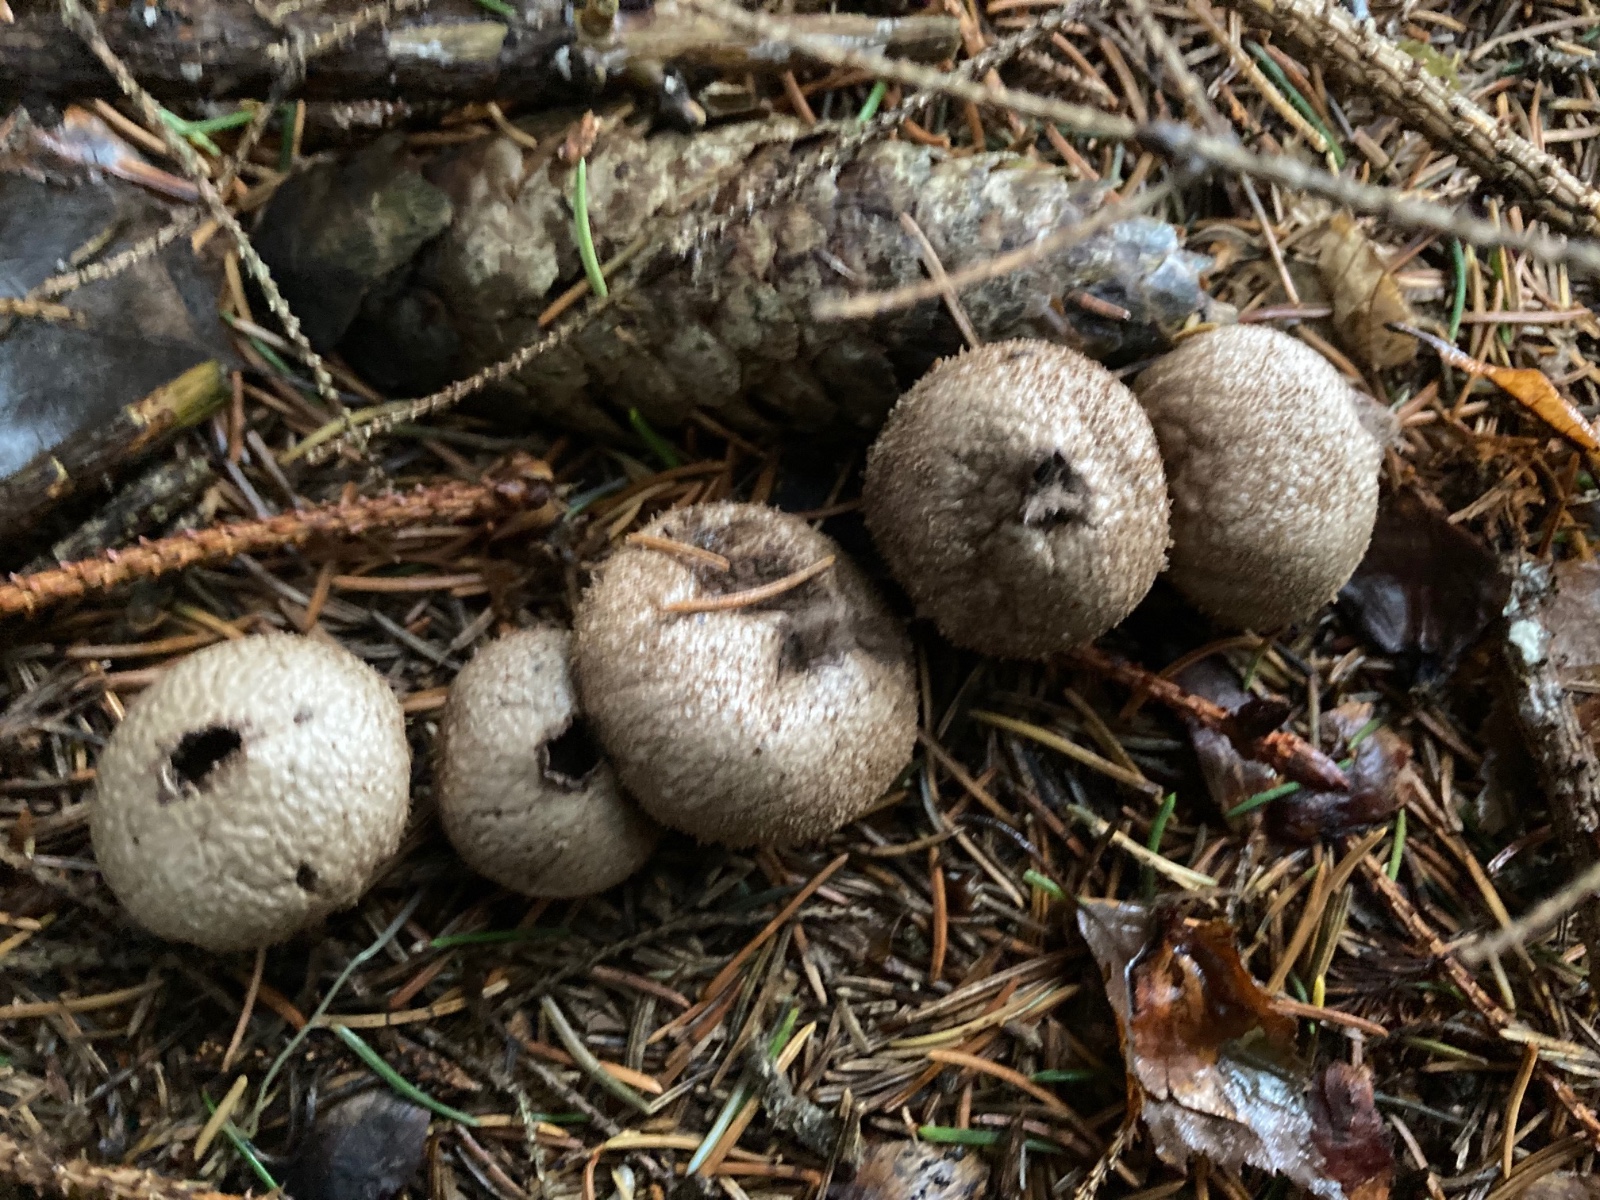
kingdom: Fungi
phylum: Basidiomycota
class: Agaricomycetes
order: Agaricales
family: Lycoperdaceae
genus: Lycoperdon
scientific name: Lycoperdon nigrescens
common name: sortagtig støvbold
